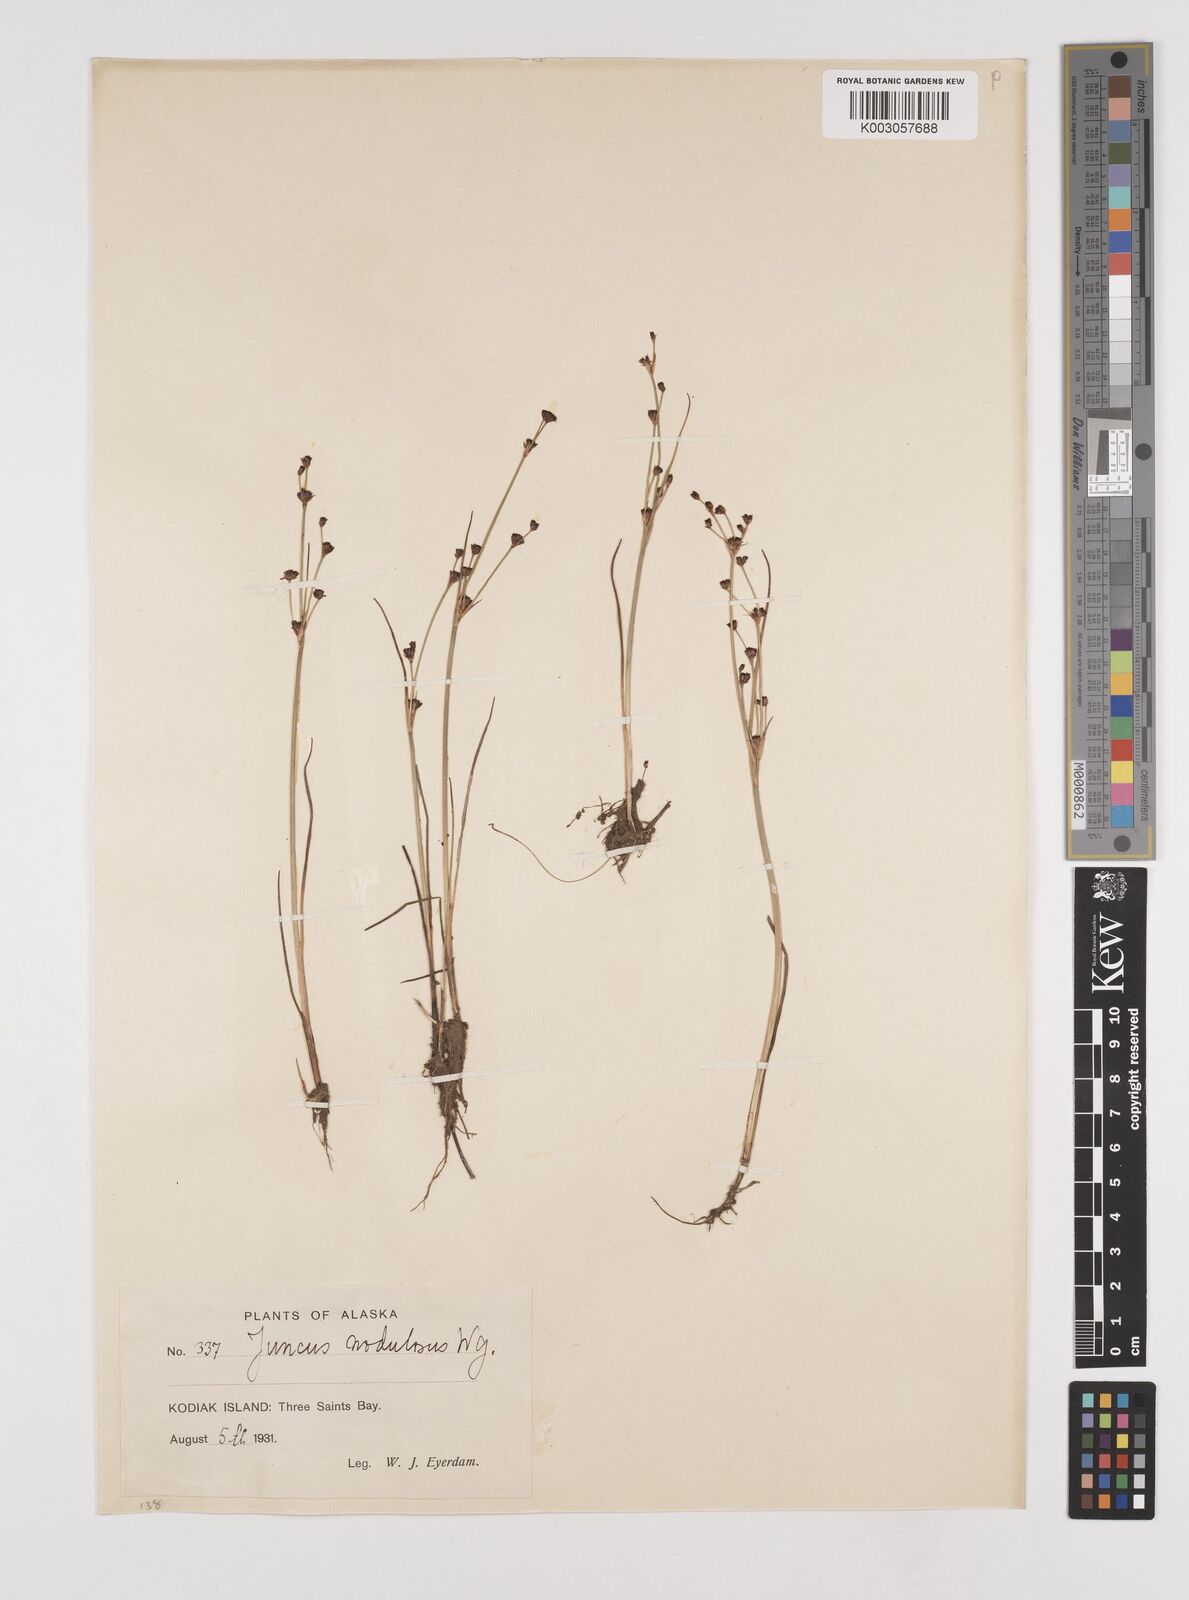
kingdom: Plantae
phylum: Tracheophyta
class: Liliopsida
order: Poales
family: Juncaceae
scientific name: Juncaceae
